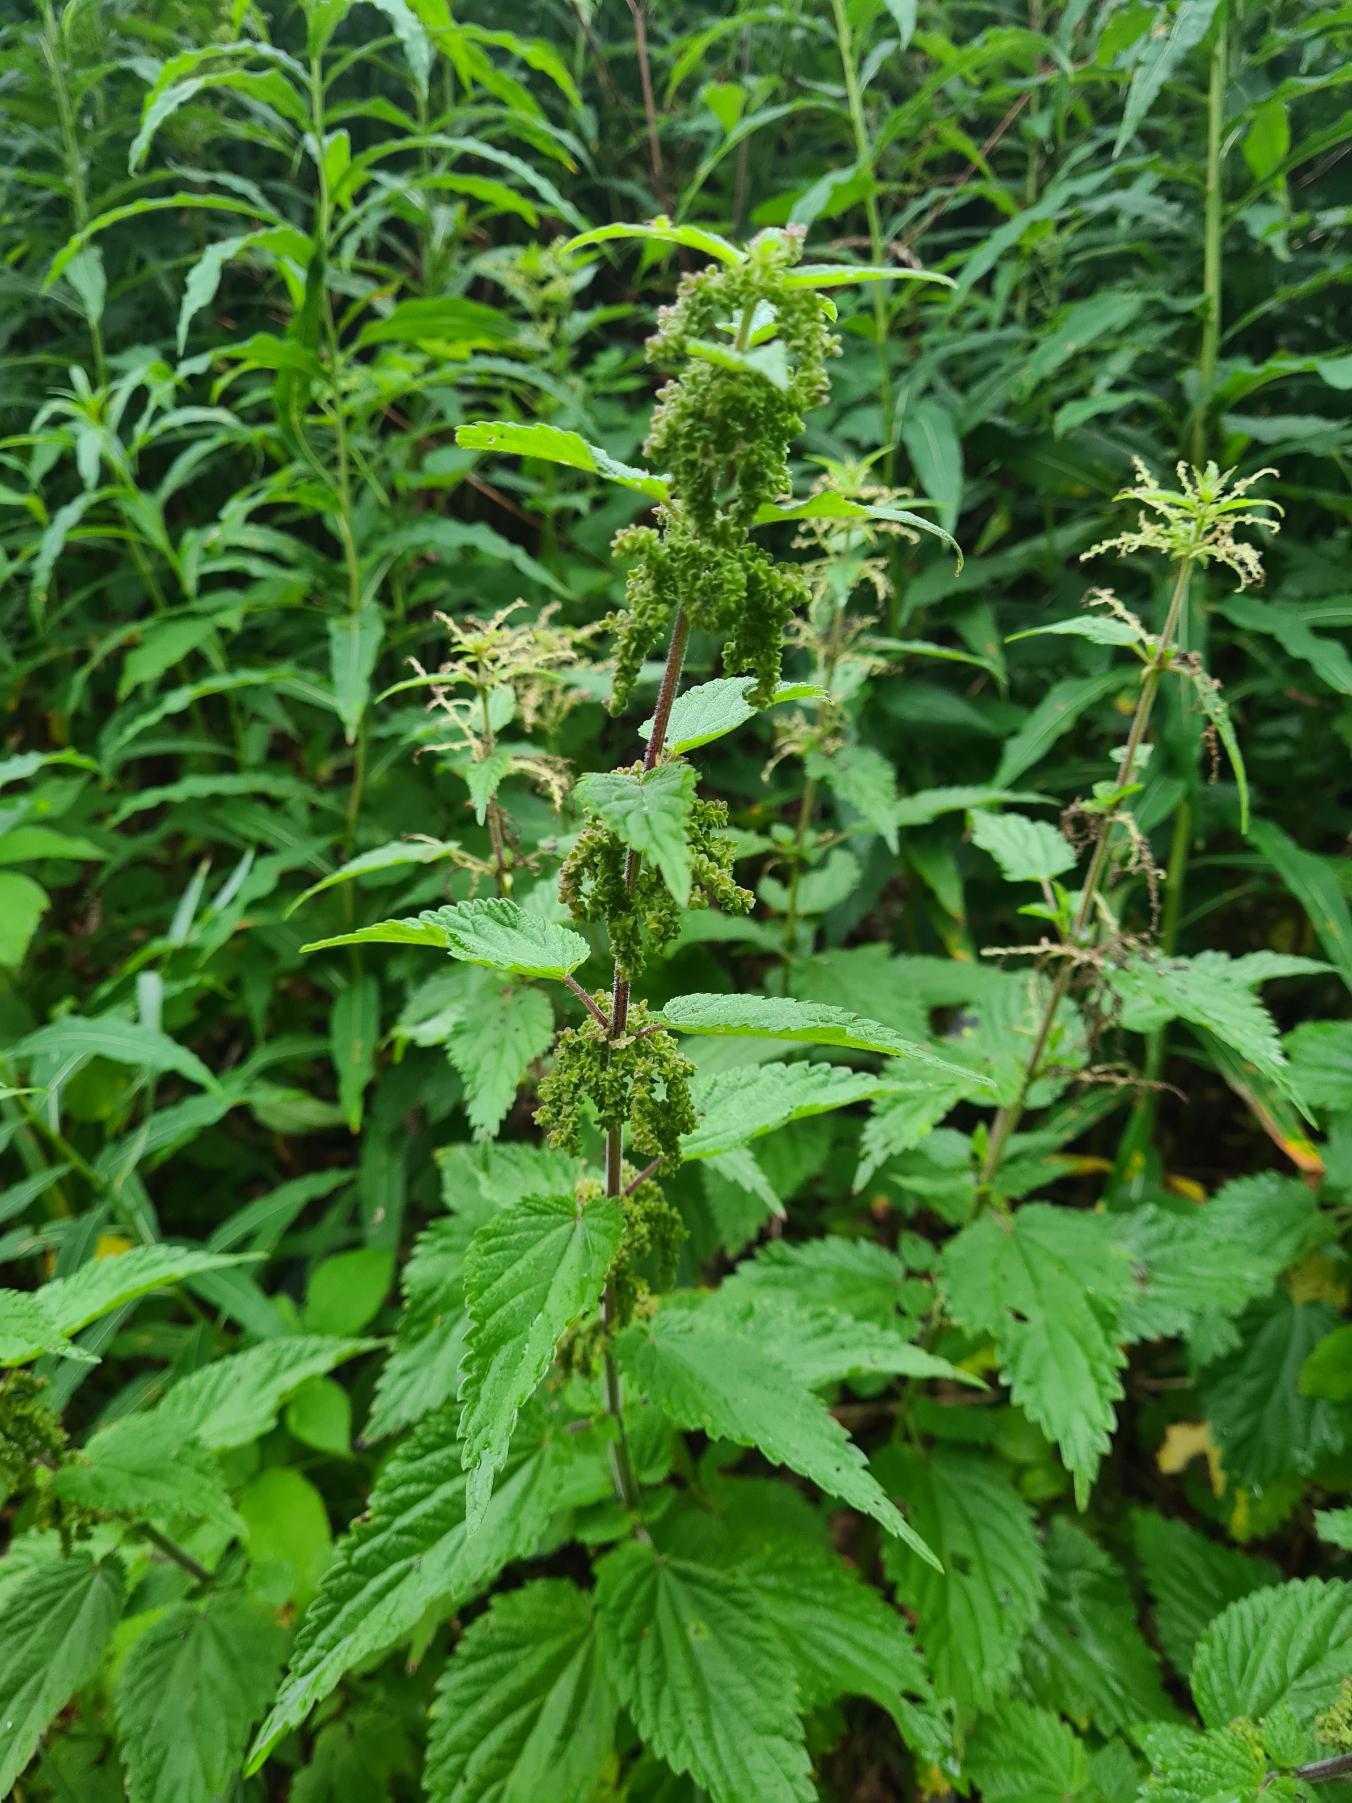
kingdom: Plantae
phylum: Tracheophyta
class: Magnoliopsida
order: Rosales
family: Urticaceae
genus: Urtica
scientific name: Urtica dioica
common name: Stor nælde
